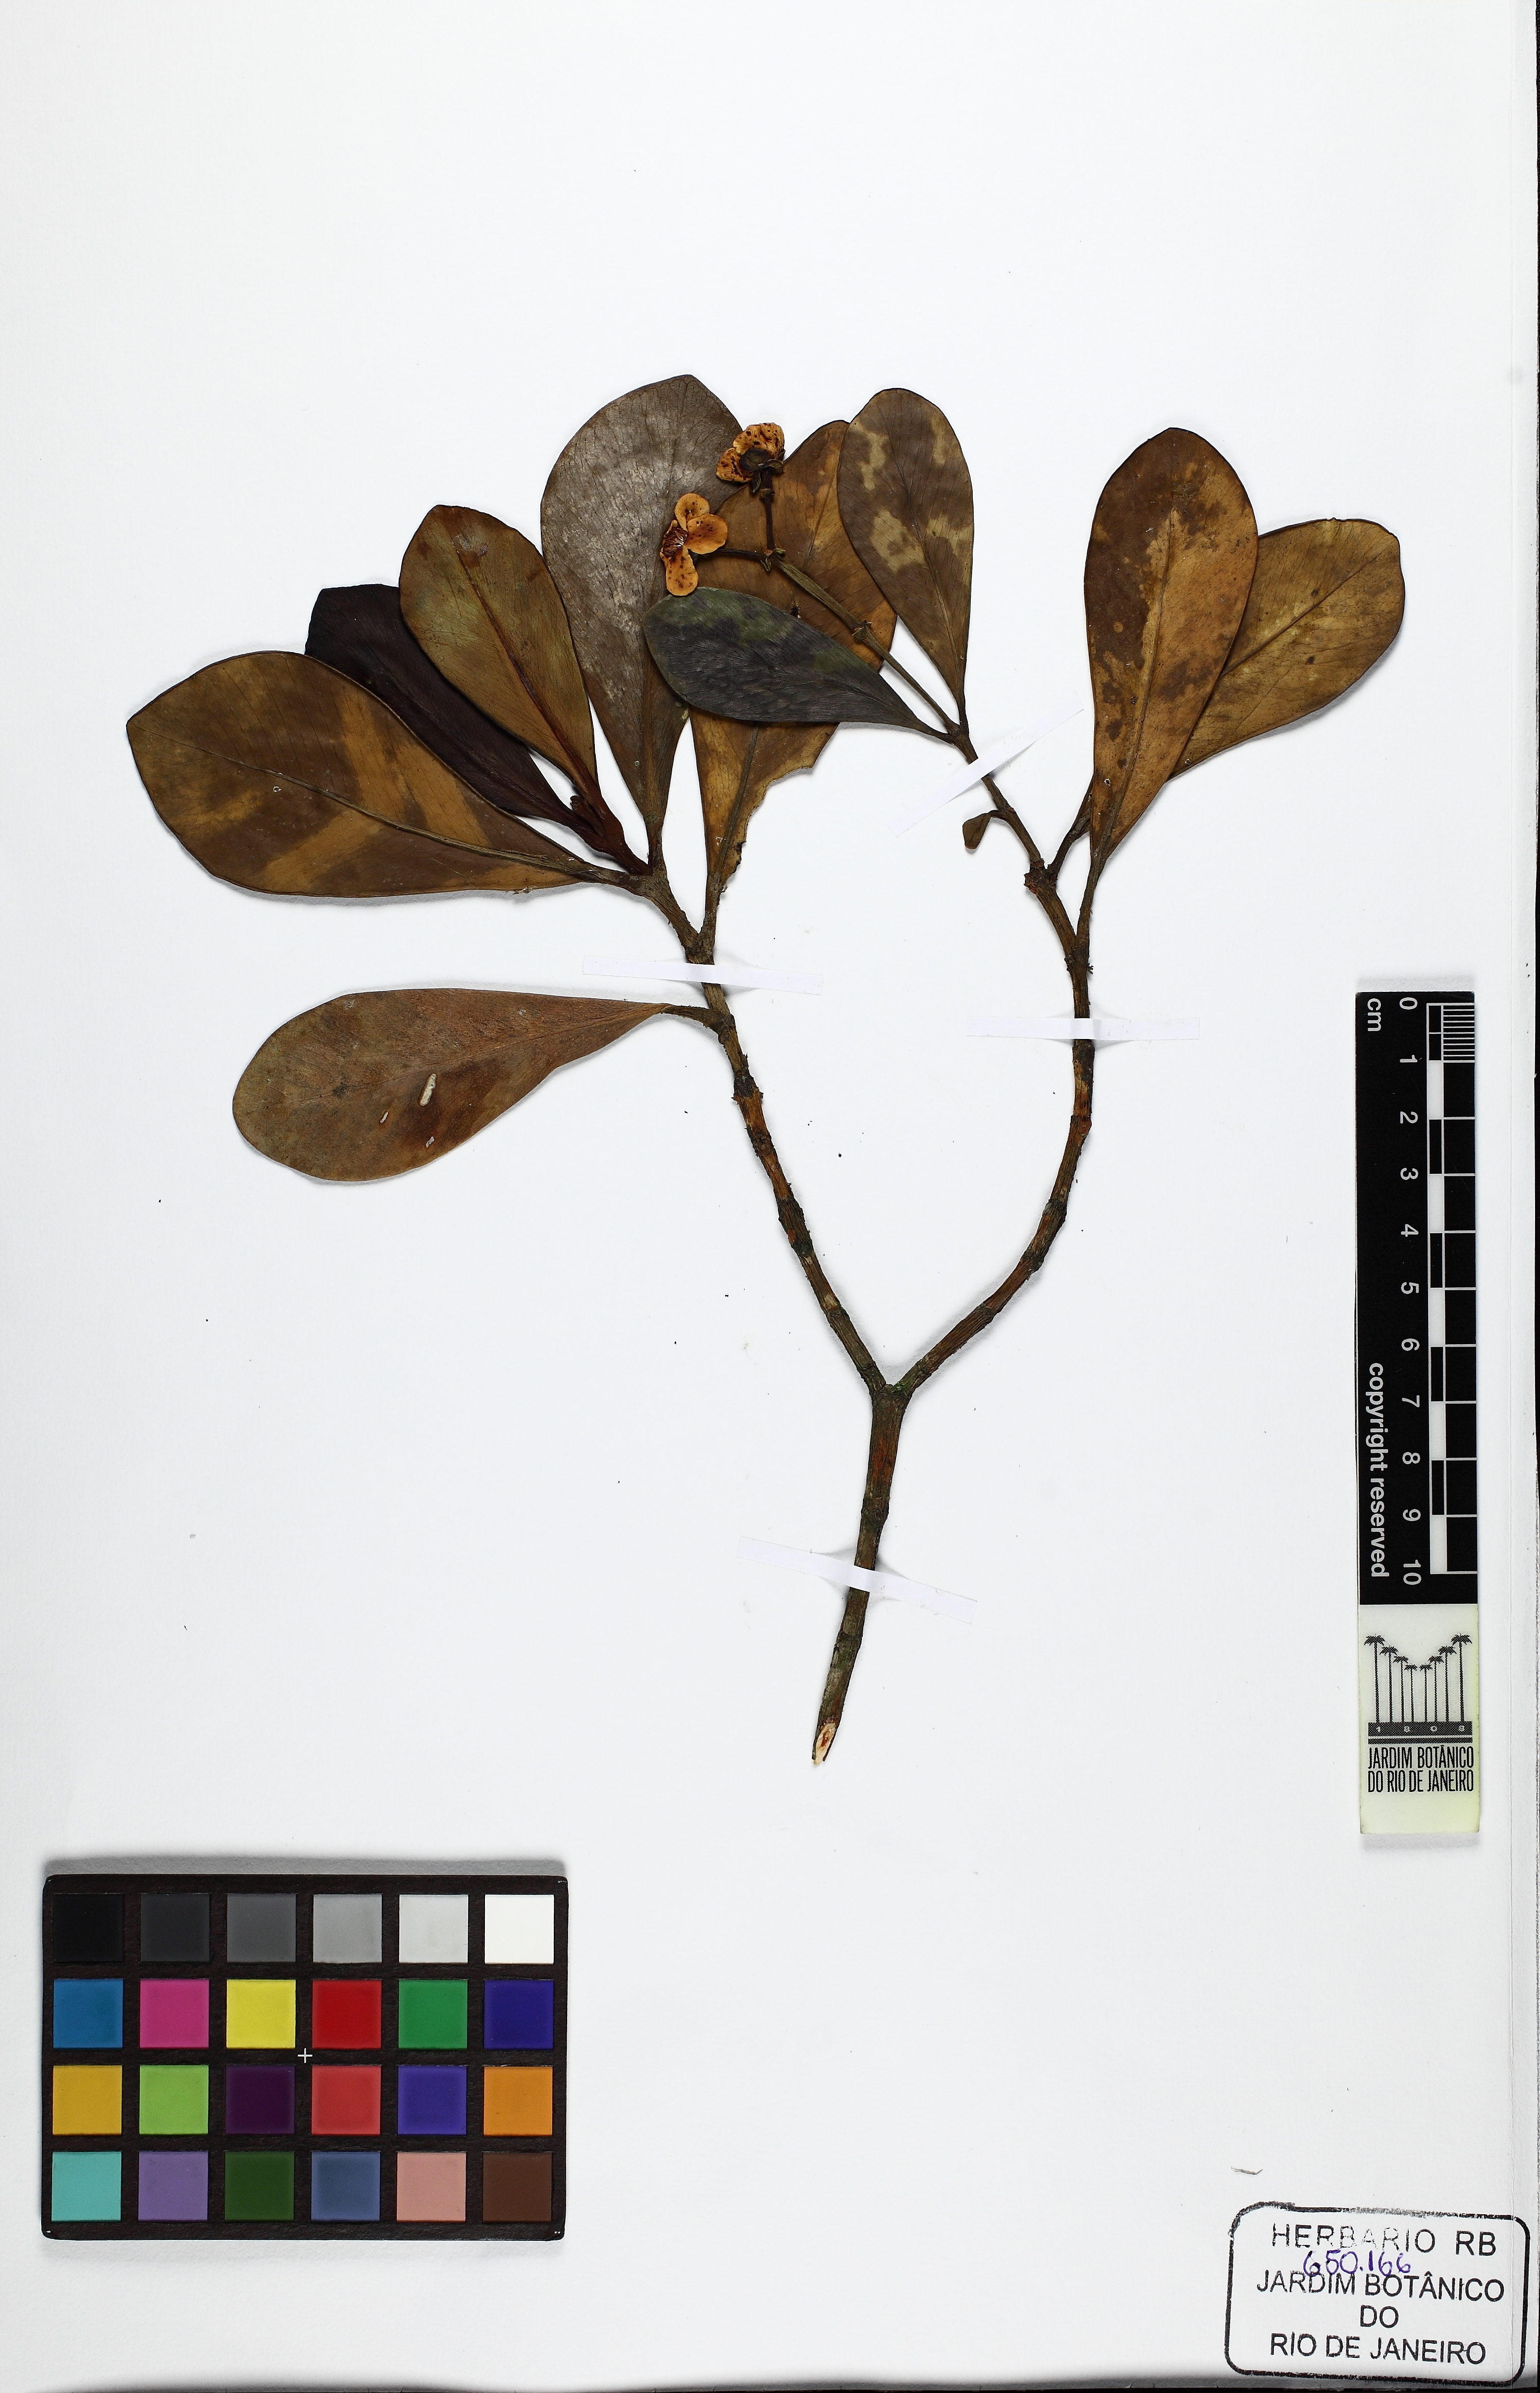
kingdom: Plantae
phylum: Tracheophyta
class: Magnoliopsida
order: Malpighiales
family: Clusiaceae
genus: Clusia
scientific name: Clusia criuva
